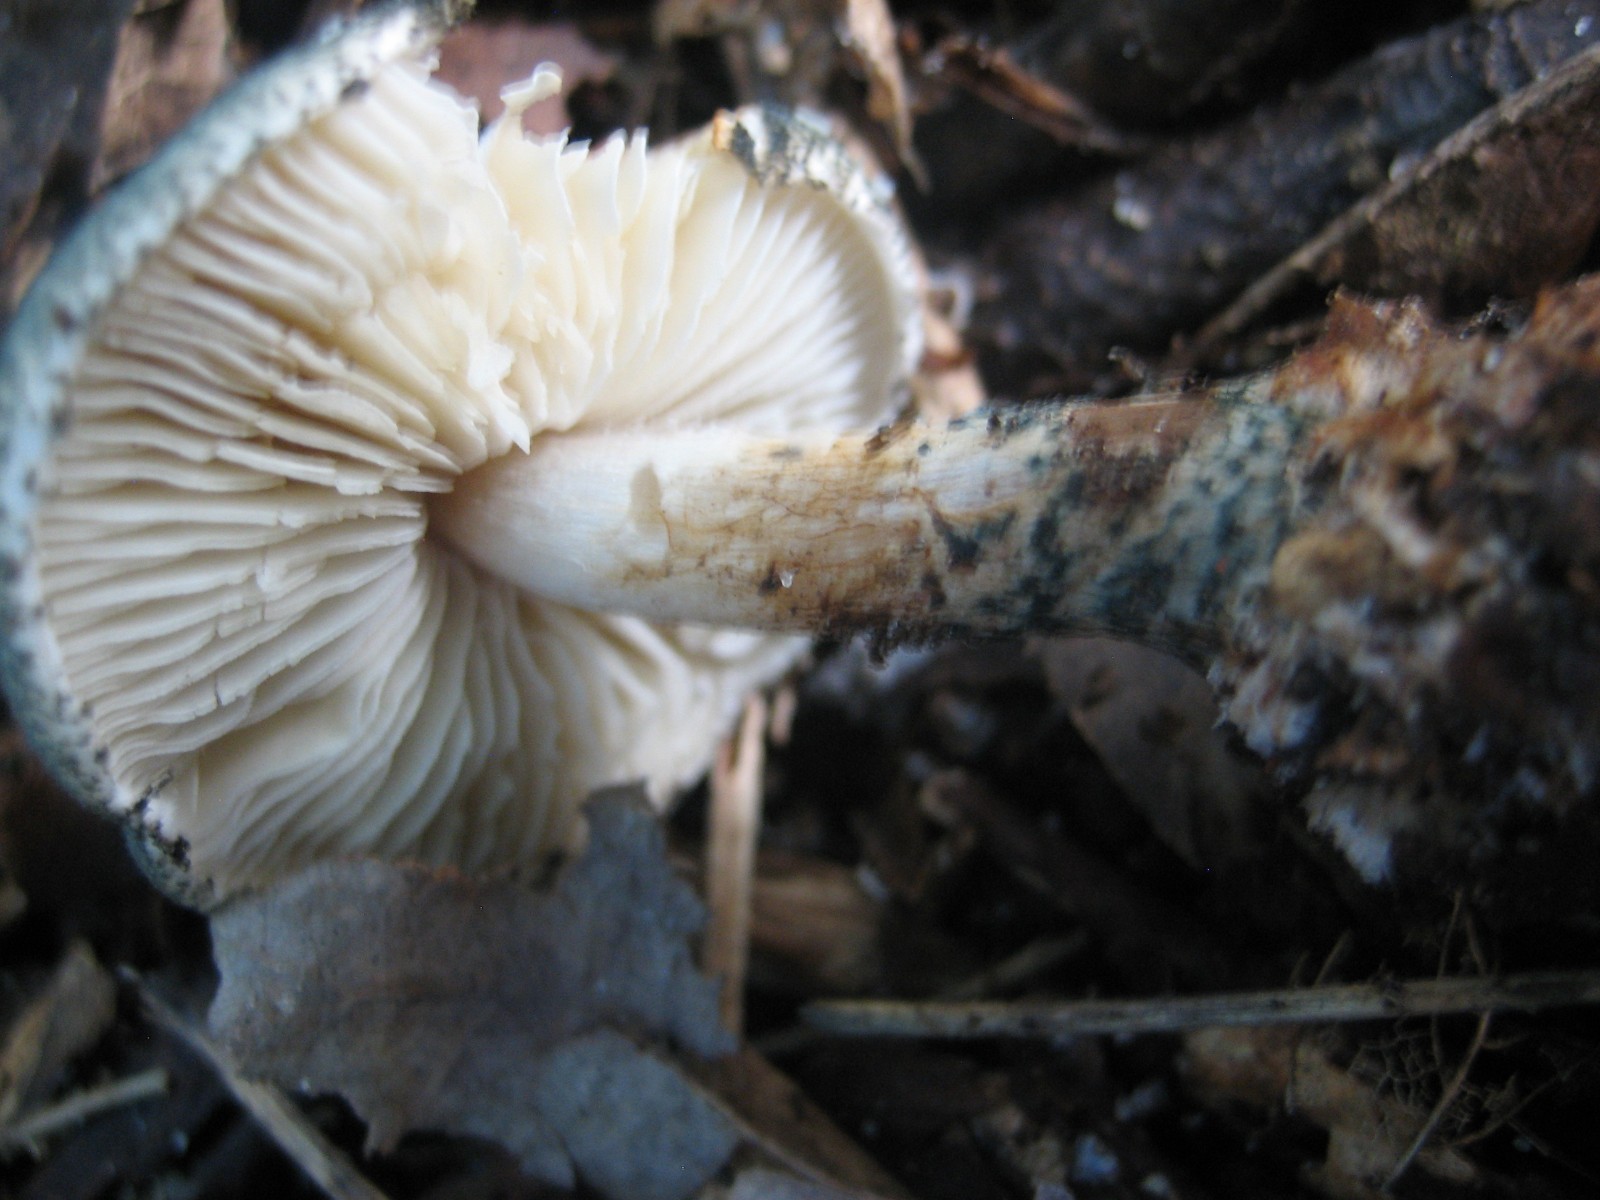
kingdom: Fungi
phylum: Basidiomycota
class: Agaricomycetes
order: Agaricales
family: Agaricaceae
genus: Lepiota
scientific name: Lepiota grangei
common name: grønskællet parasolhat
